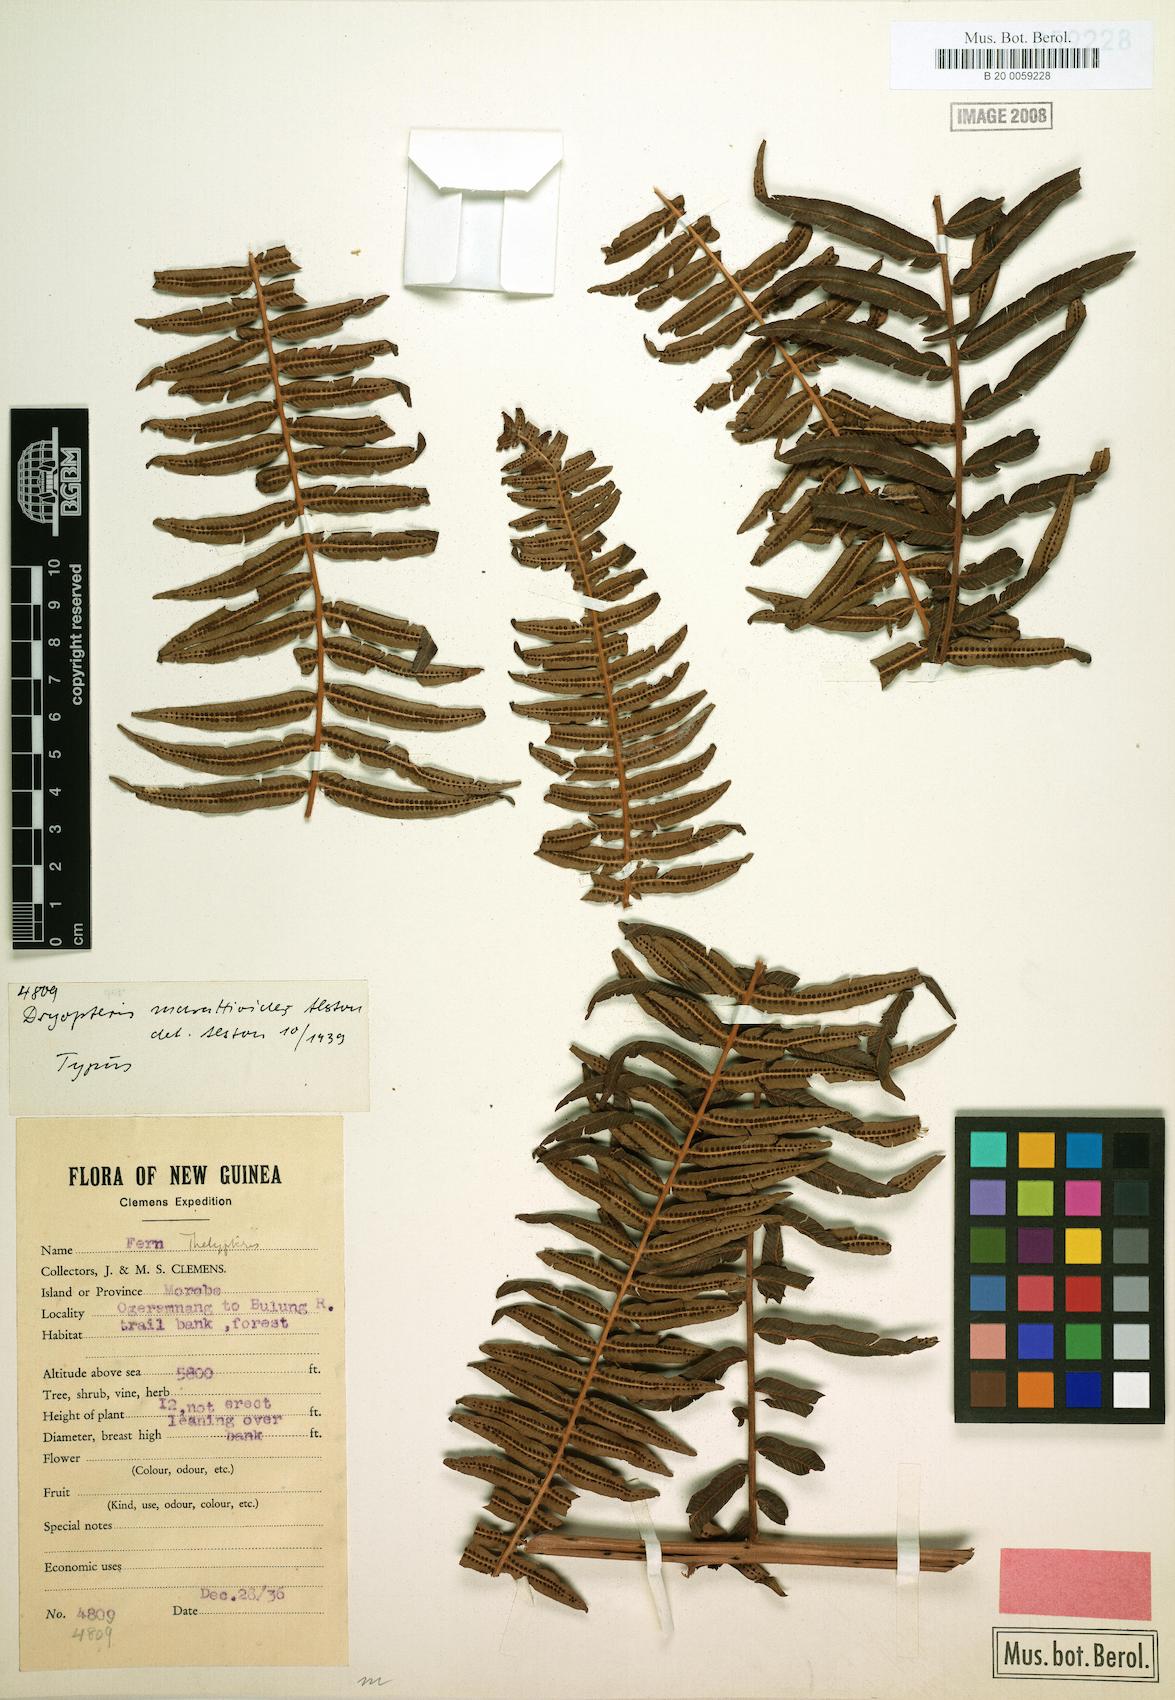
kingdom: Plantae
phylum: Tracheophyta
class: Polypodiopsida
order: Polypodiales
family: Thelypteridaceae
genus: Chingia
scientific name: Chingia marattioides
